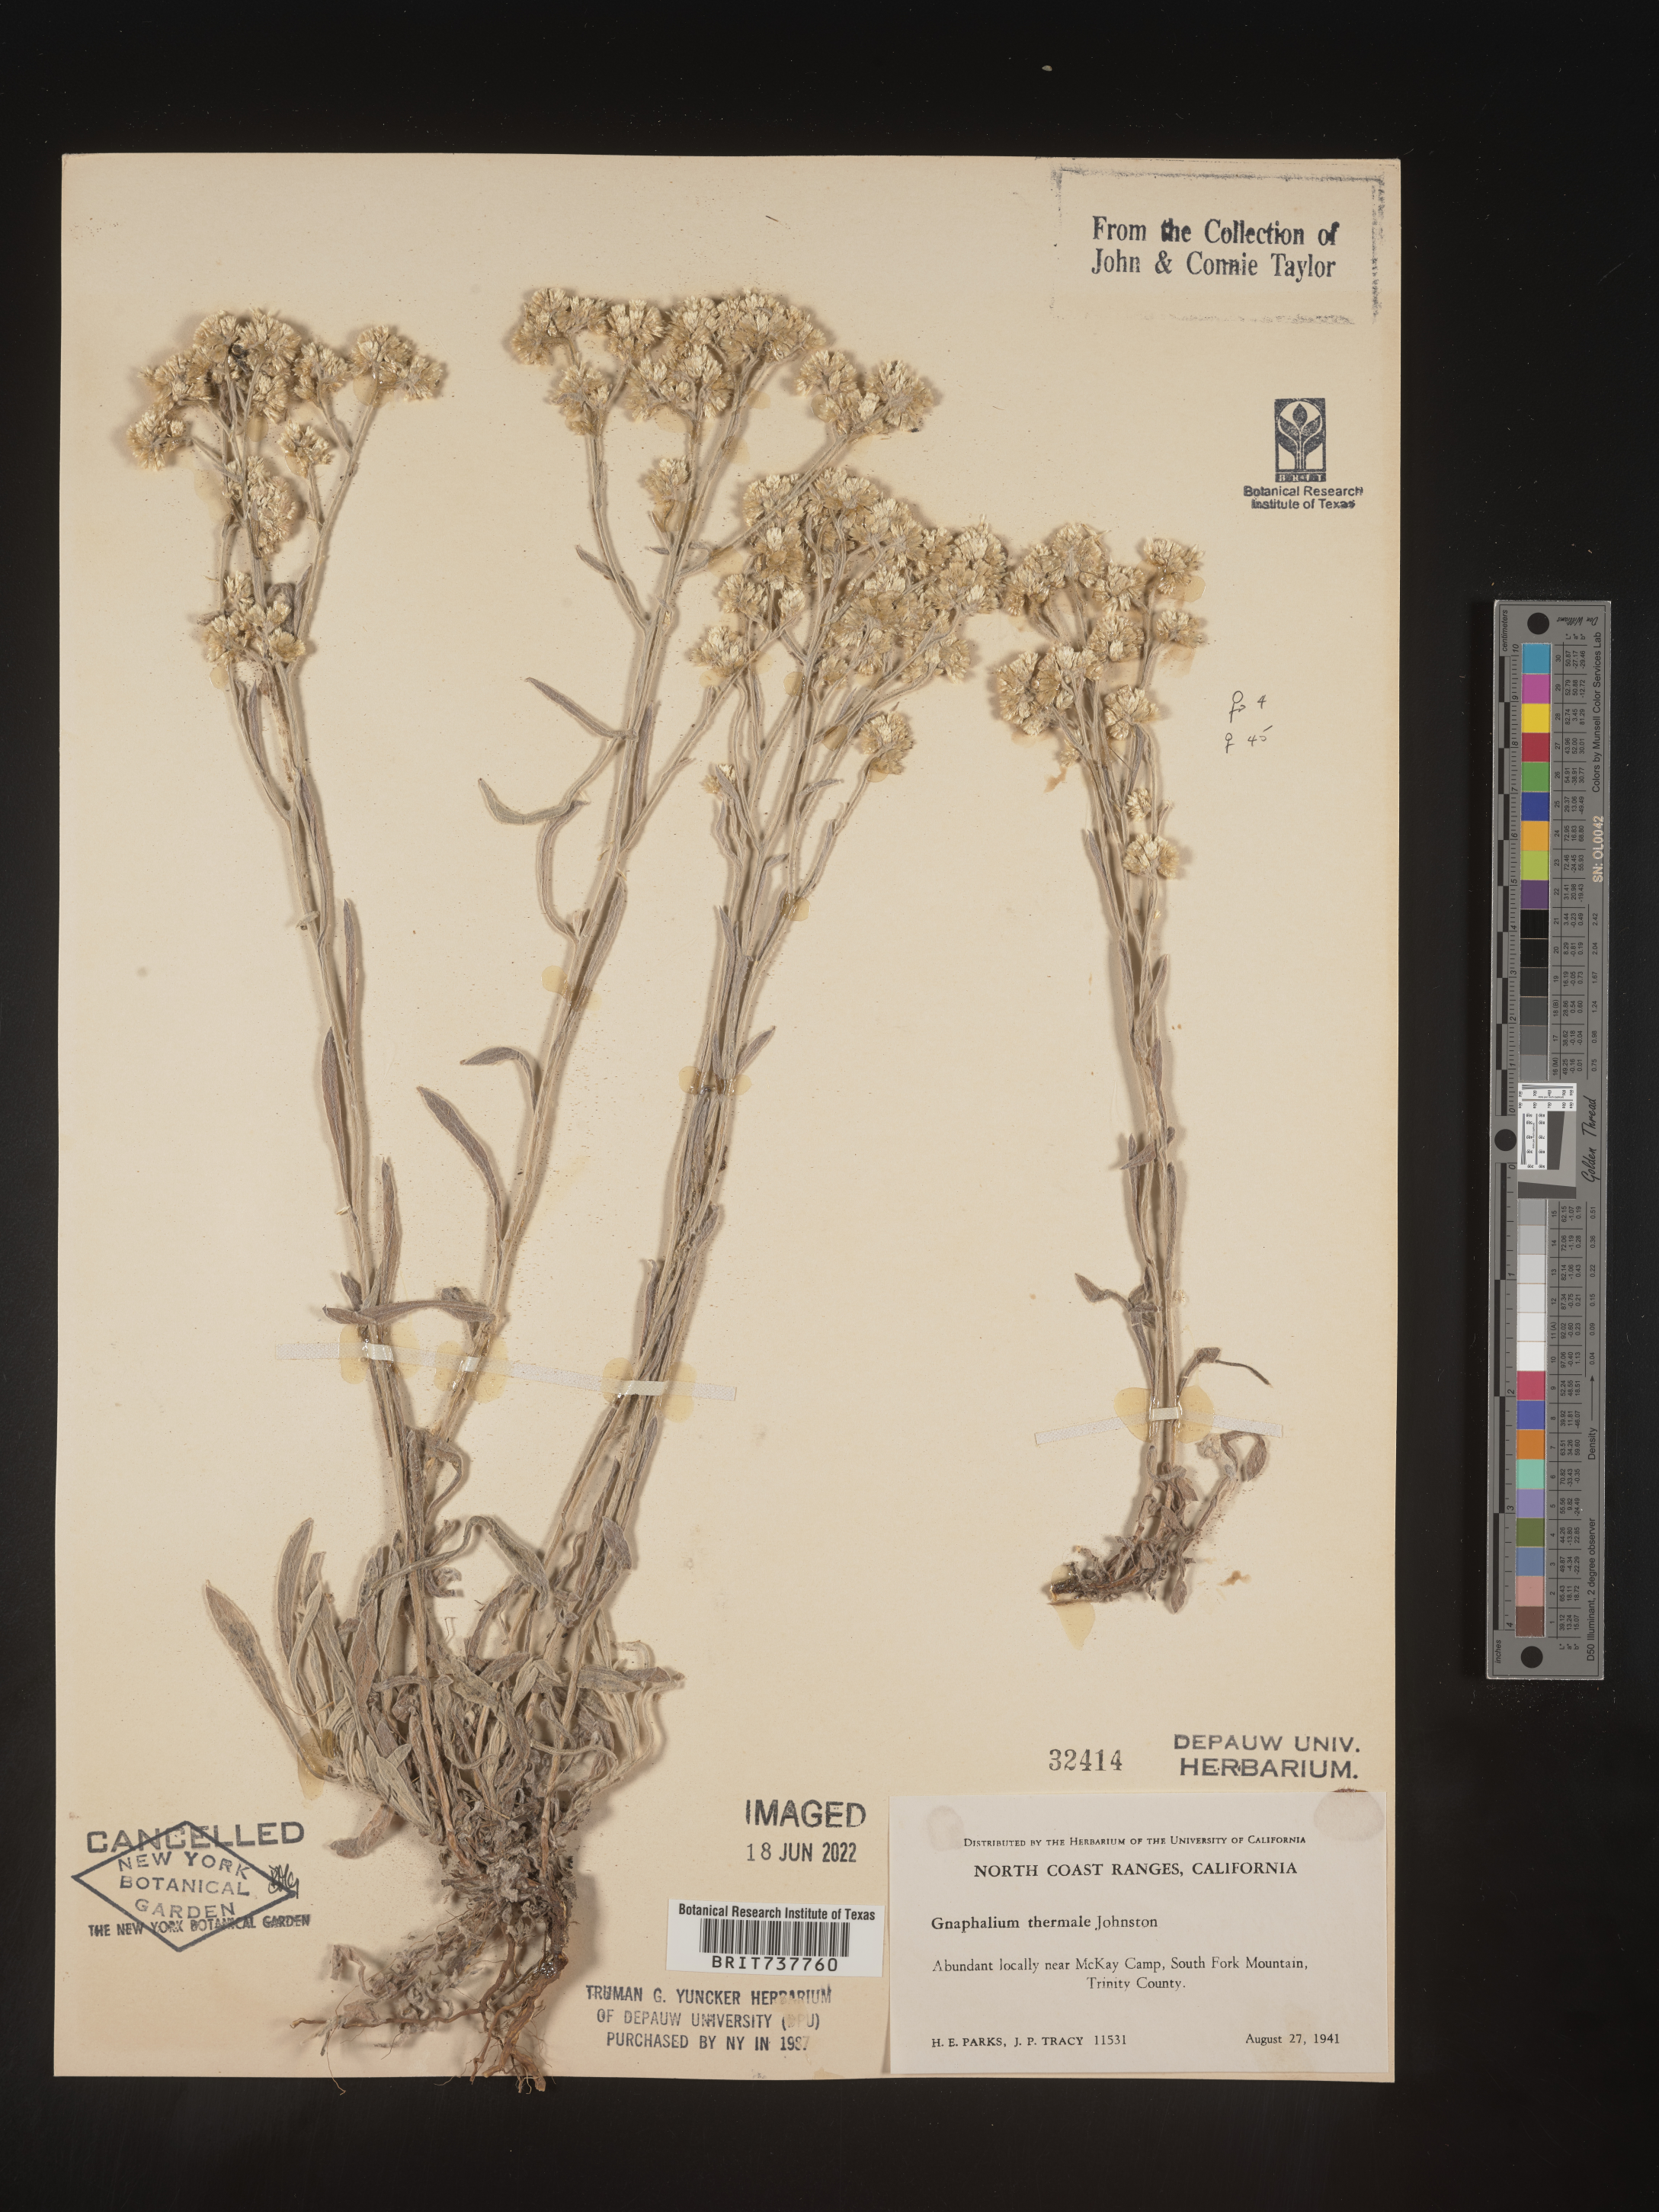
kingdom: Plantae
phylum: Tracheophyta
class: Magnoliopsida
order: Asterales
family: Asteraceae
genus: Pseudognaphalium
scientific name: Pseudognaphalium thermale
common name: Northwestern rabbit-tobacco
